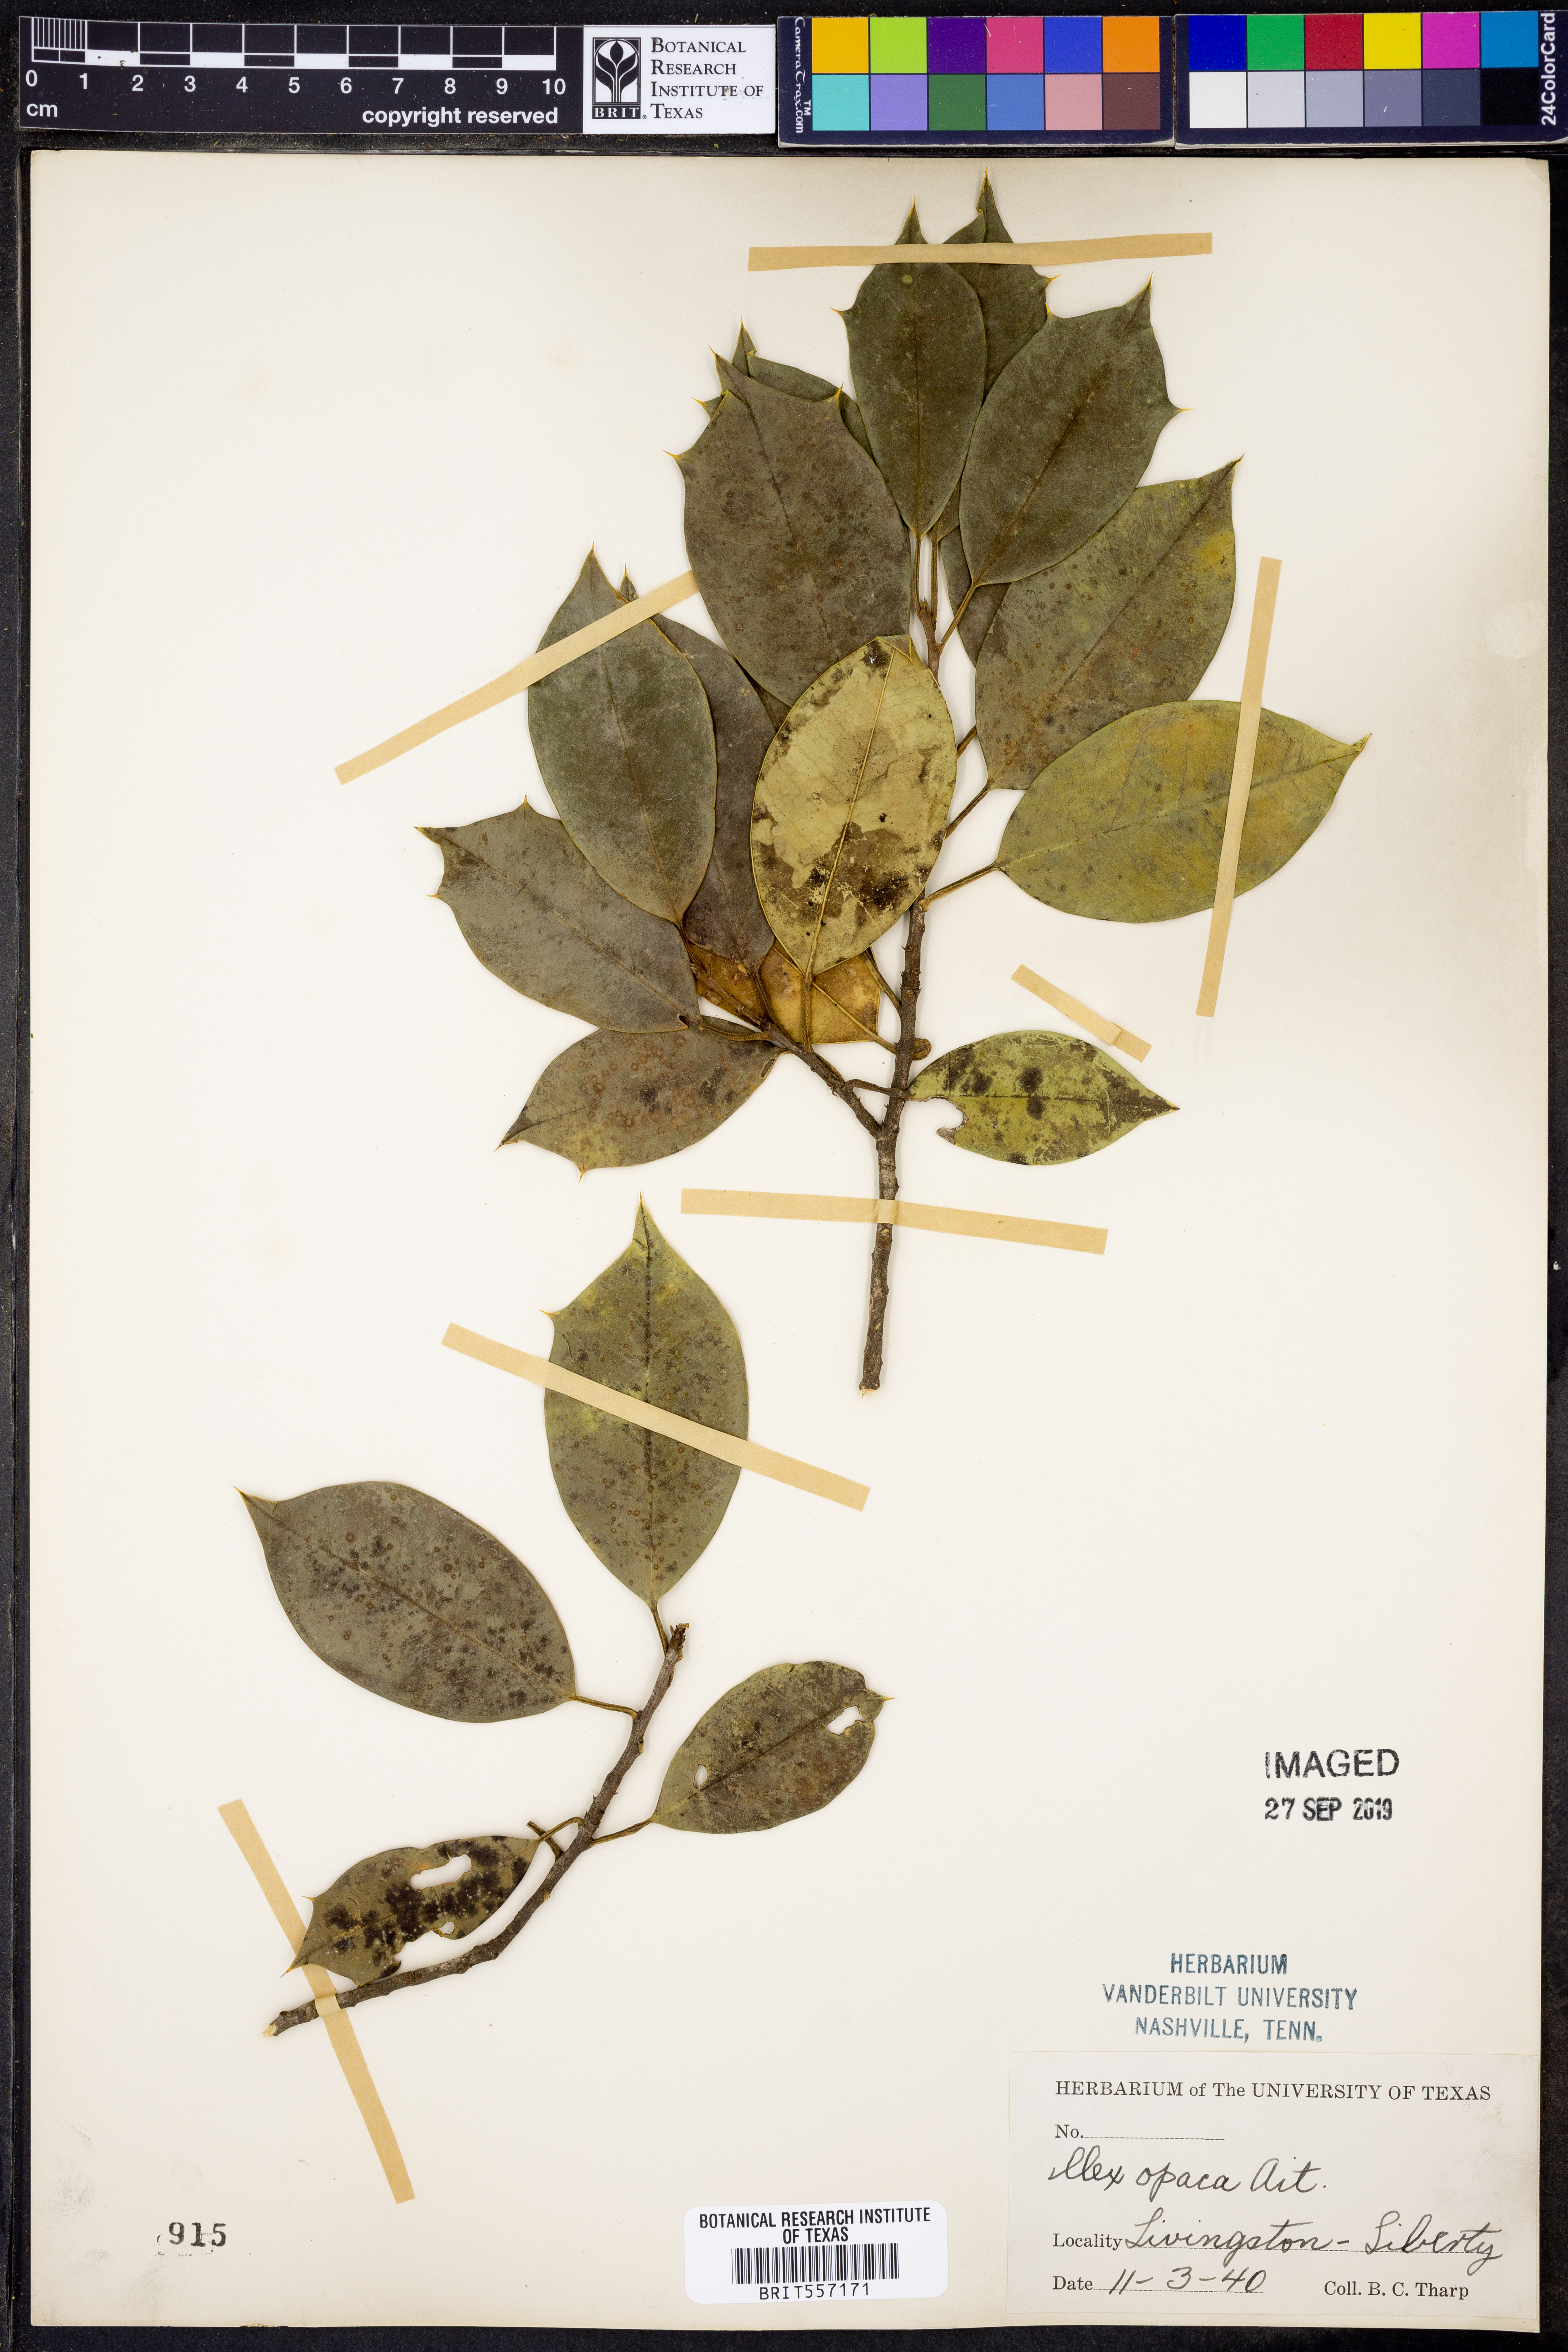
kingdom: Plantae
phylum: Tracheophyta
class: Magnoliopsida
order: Aquifoliales
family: Aquifoliaceae
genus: Ilex
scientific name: Ilex opaca
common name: American holly
